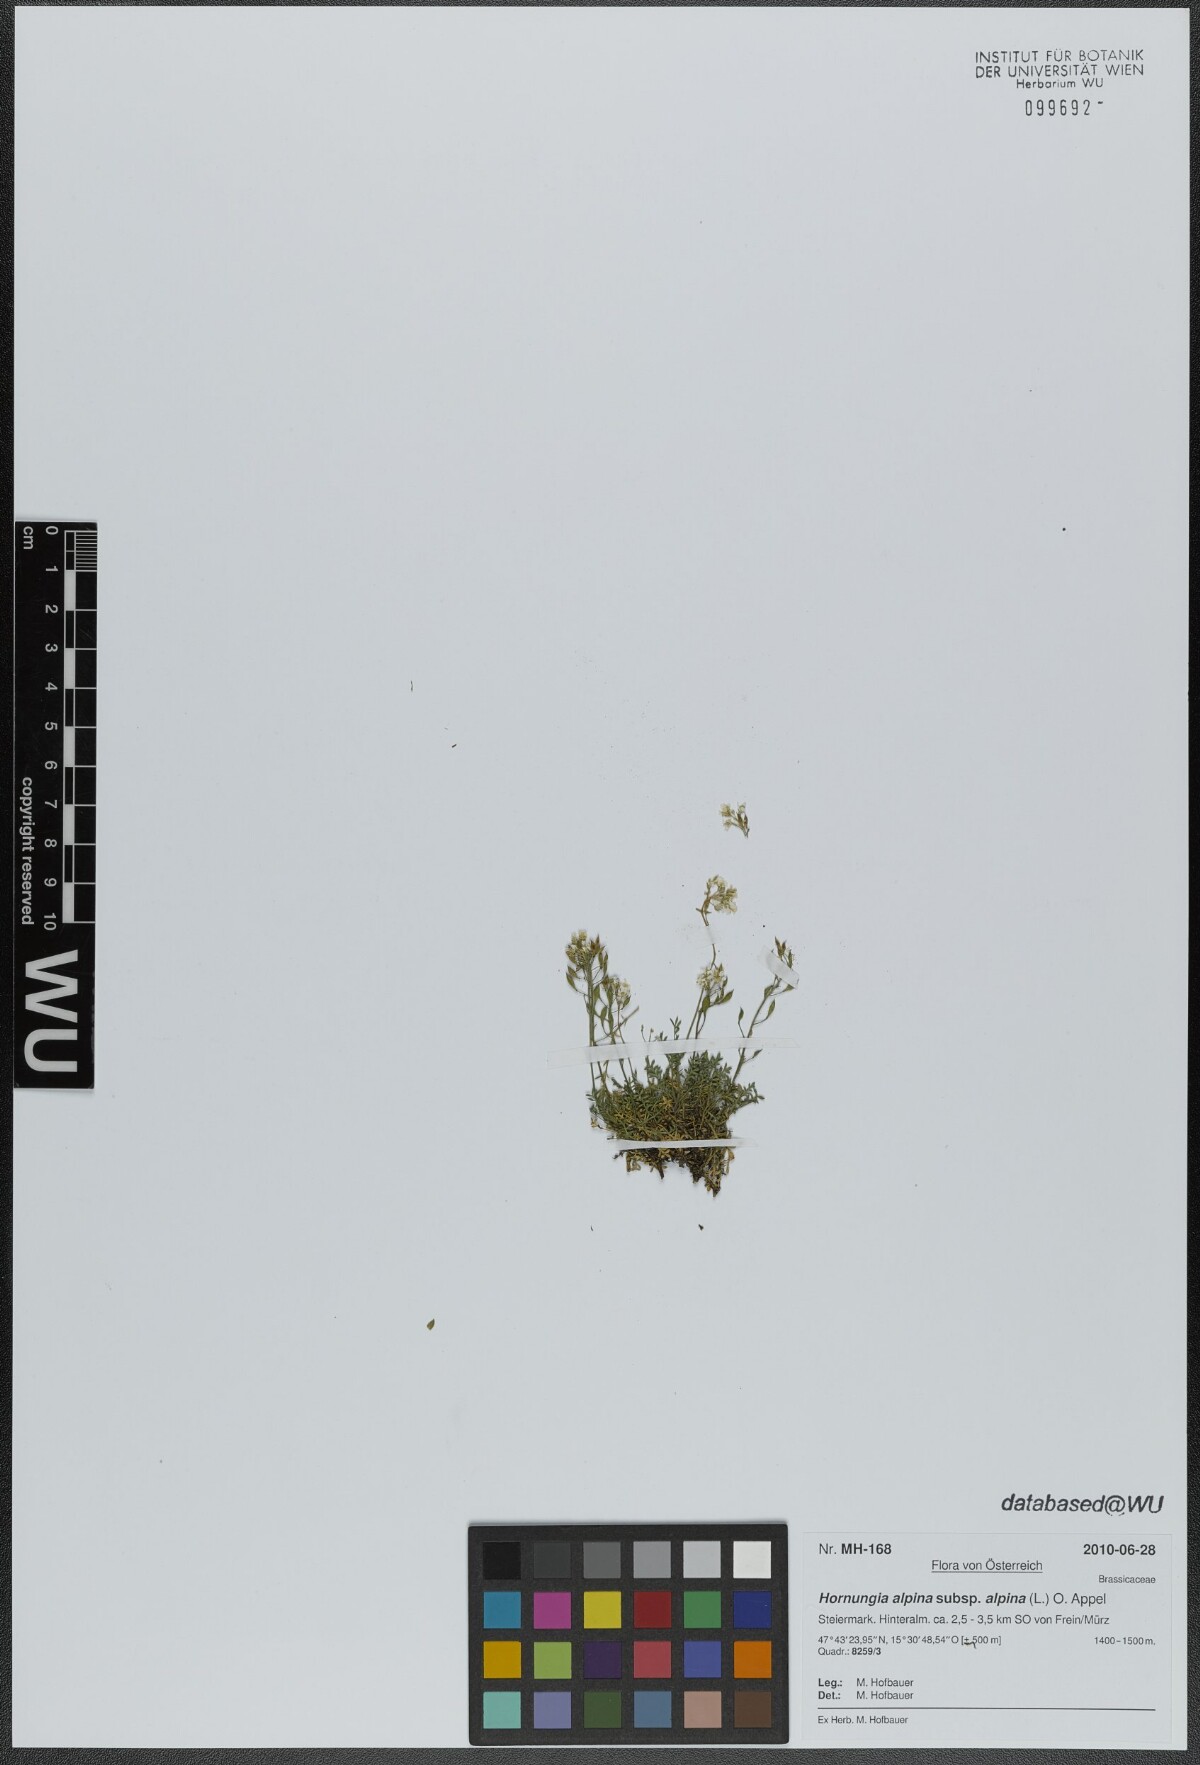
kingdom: Plantae
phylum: Tracheophyta
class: Magnoliopsida
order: Brassicales
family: Brassicaceae
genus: Hornungia
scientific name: Hornungia alpina
